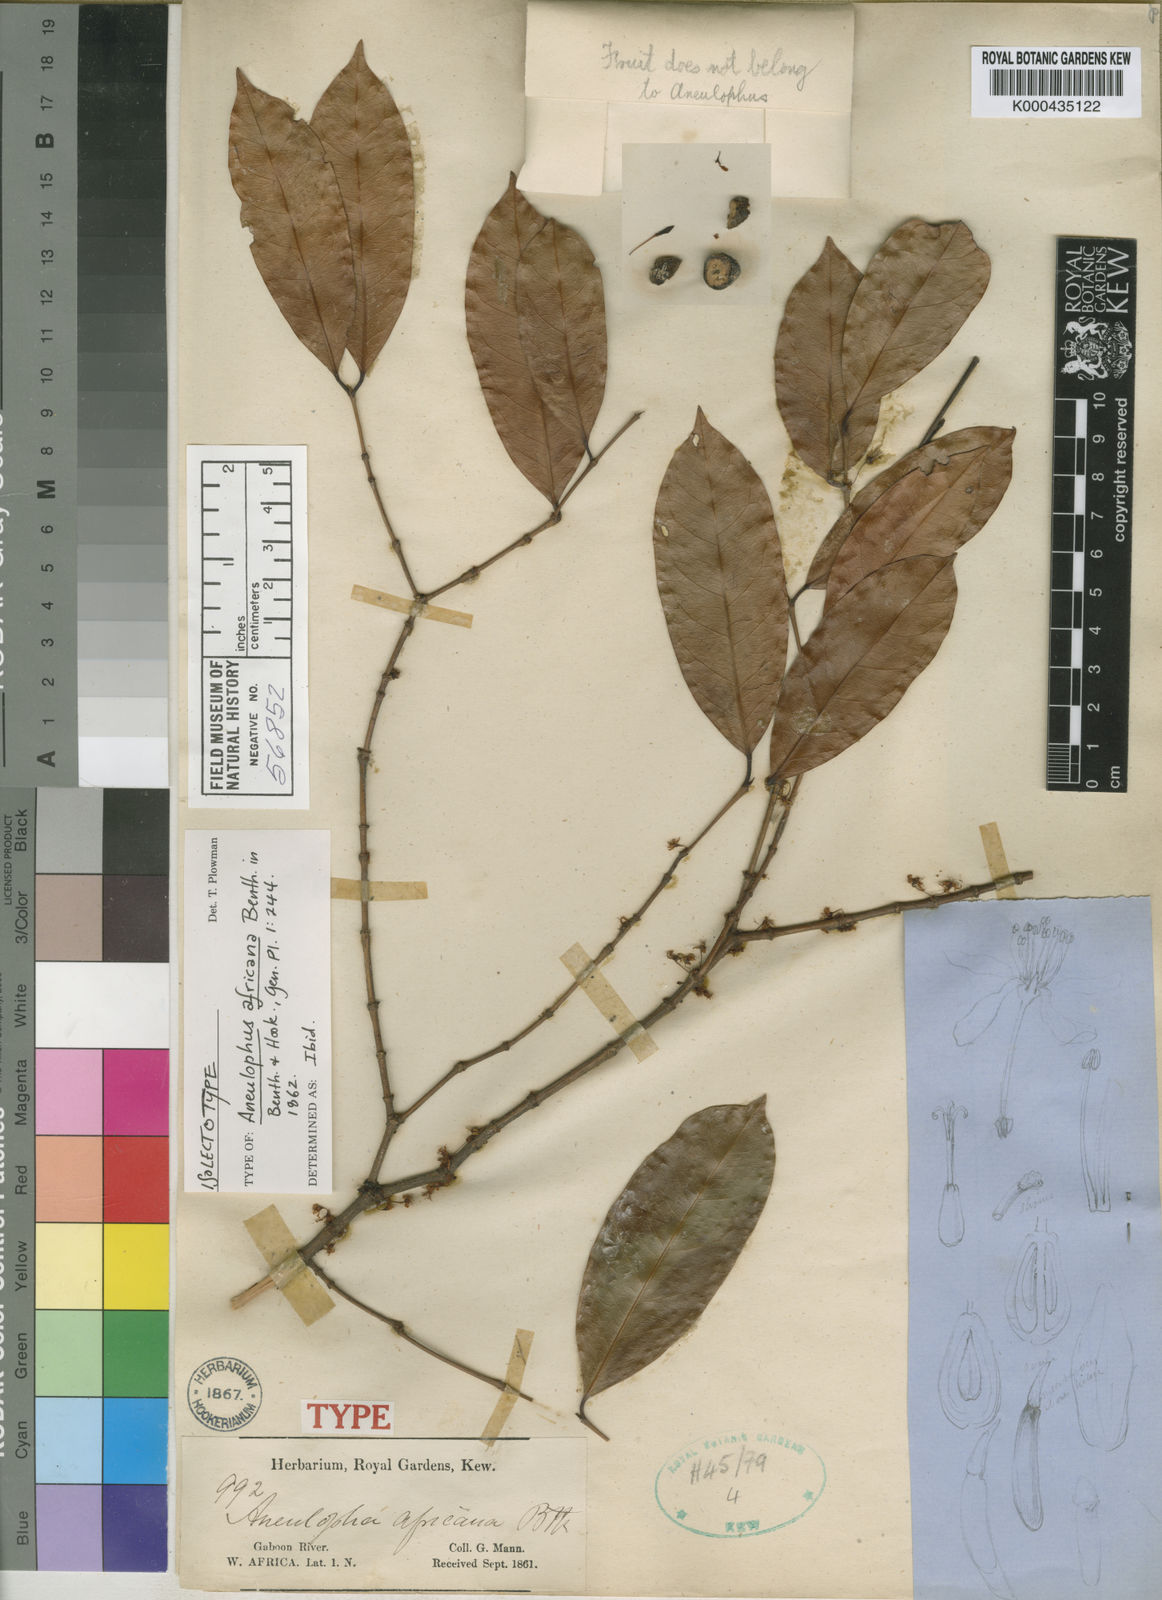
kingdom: Plantae
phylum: Tracheophyta
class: Magnoliopsida
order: Malpighiales
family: Erythroxylaceae
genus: Aneulophus
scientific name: Aneulophus africanus
